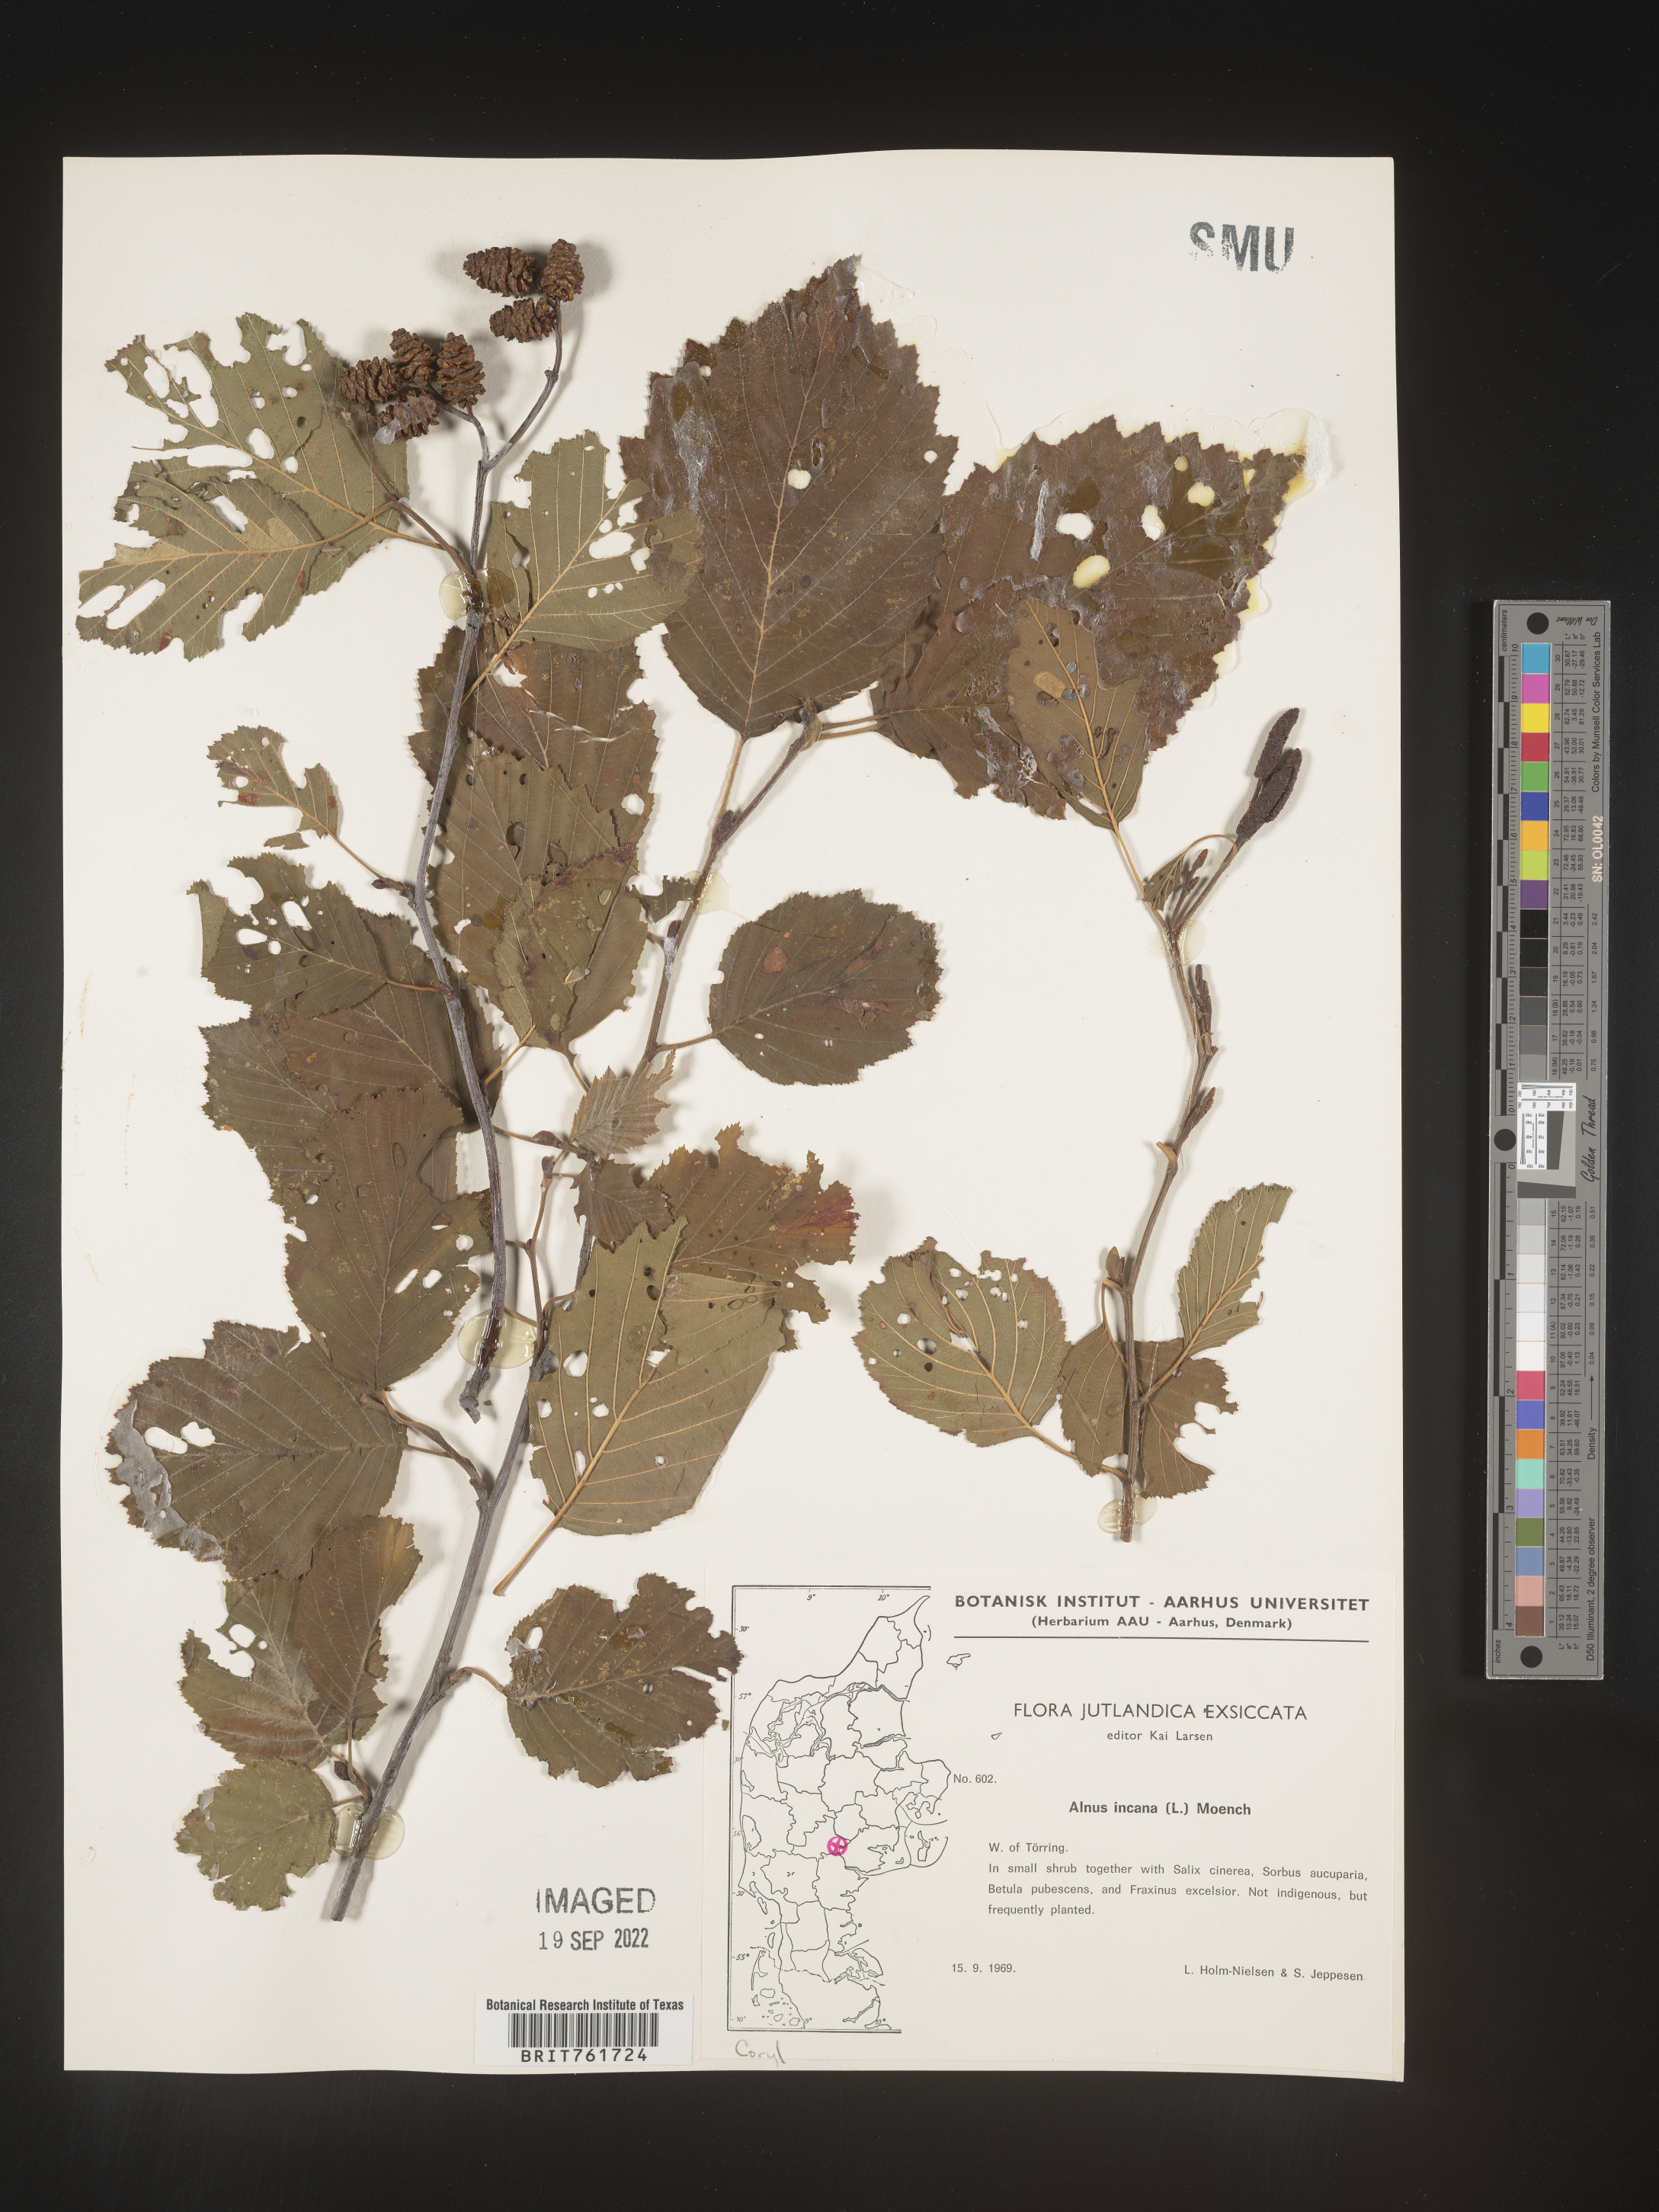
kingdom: Plantae
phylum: Tracheophyta
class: Magnoliopsida
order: Fagales
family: Betulaceae
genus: Alnus
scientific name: Alnus
